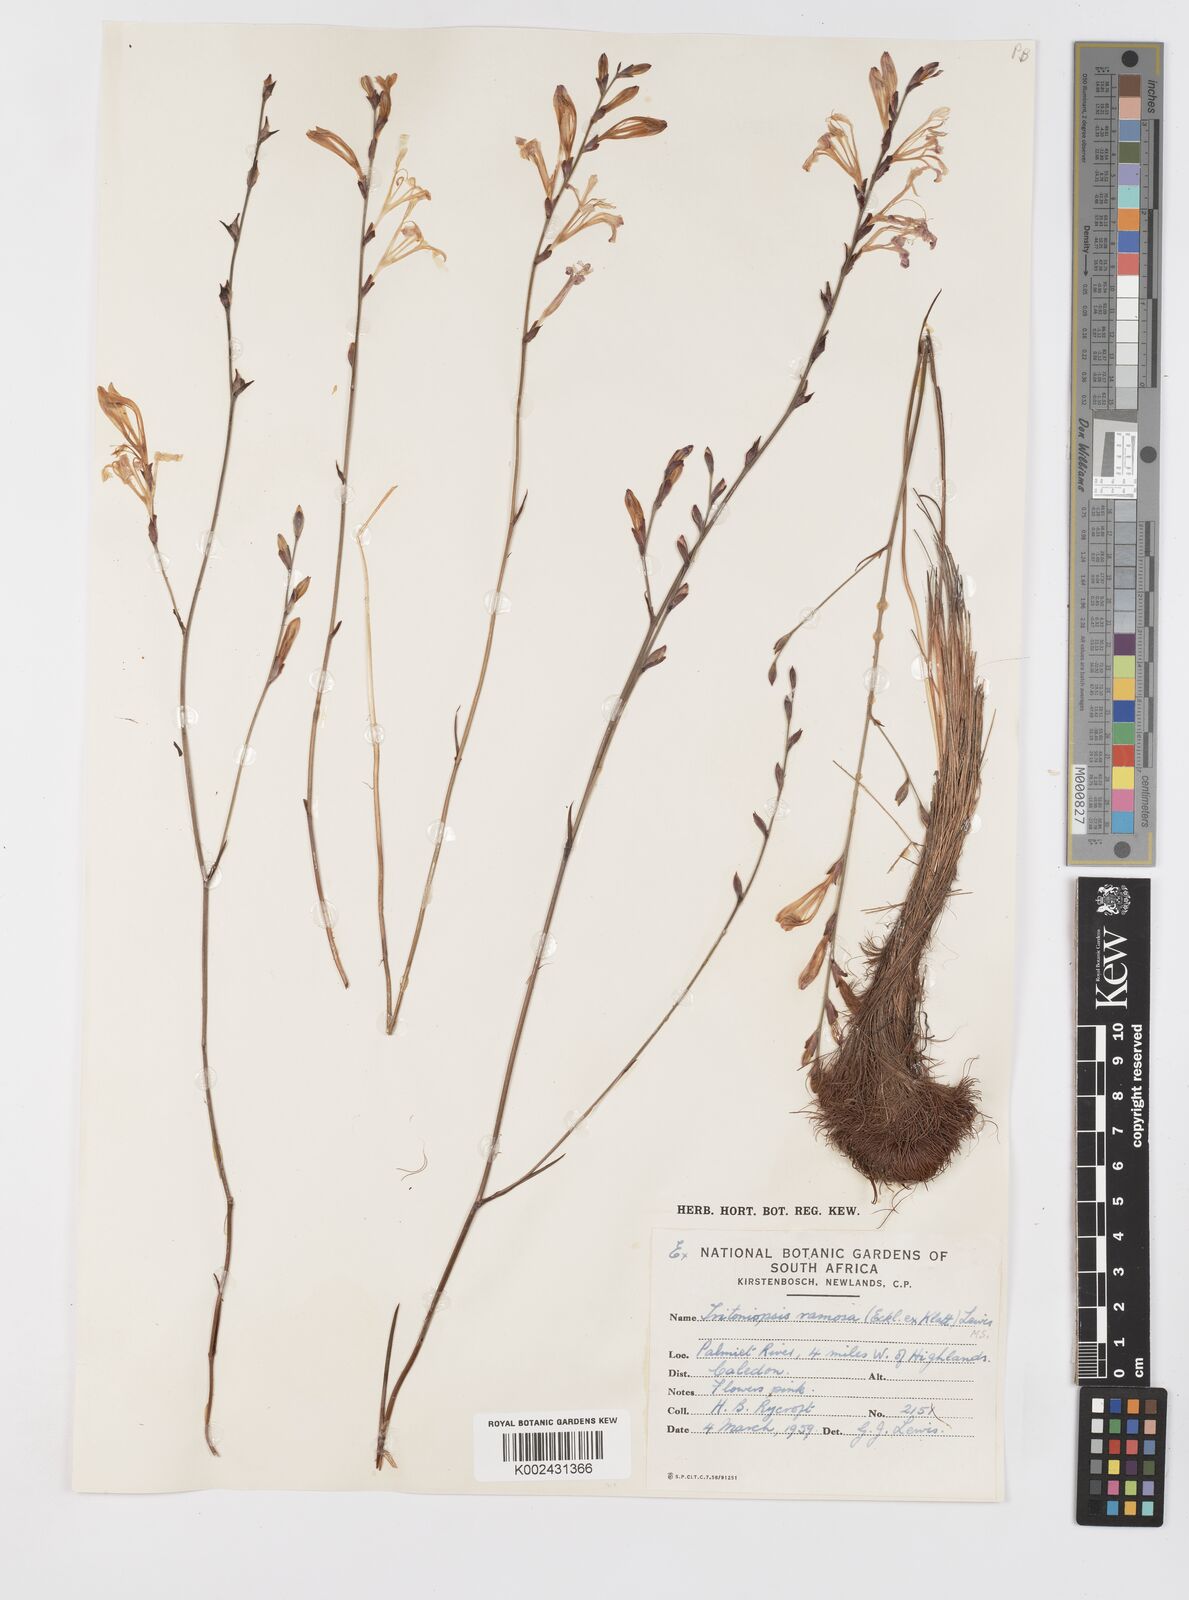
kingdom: Plantae
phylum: Tracheophyta
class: Liliopsida
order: Asparagales
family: Iridaceae
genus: Tritoniopsis
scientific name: Tritoniopsis ramosa
